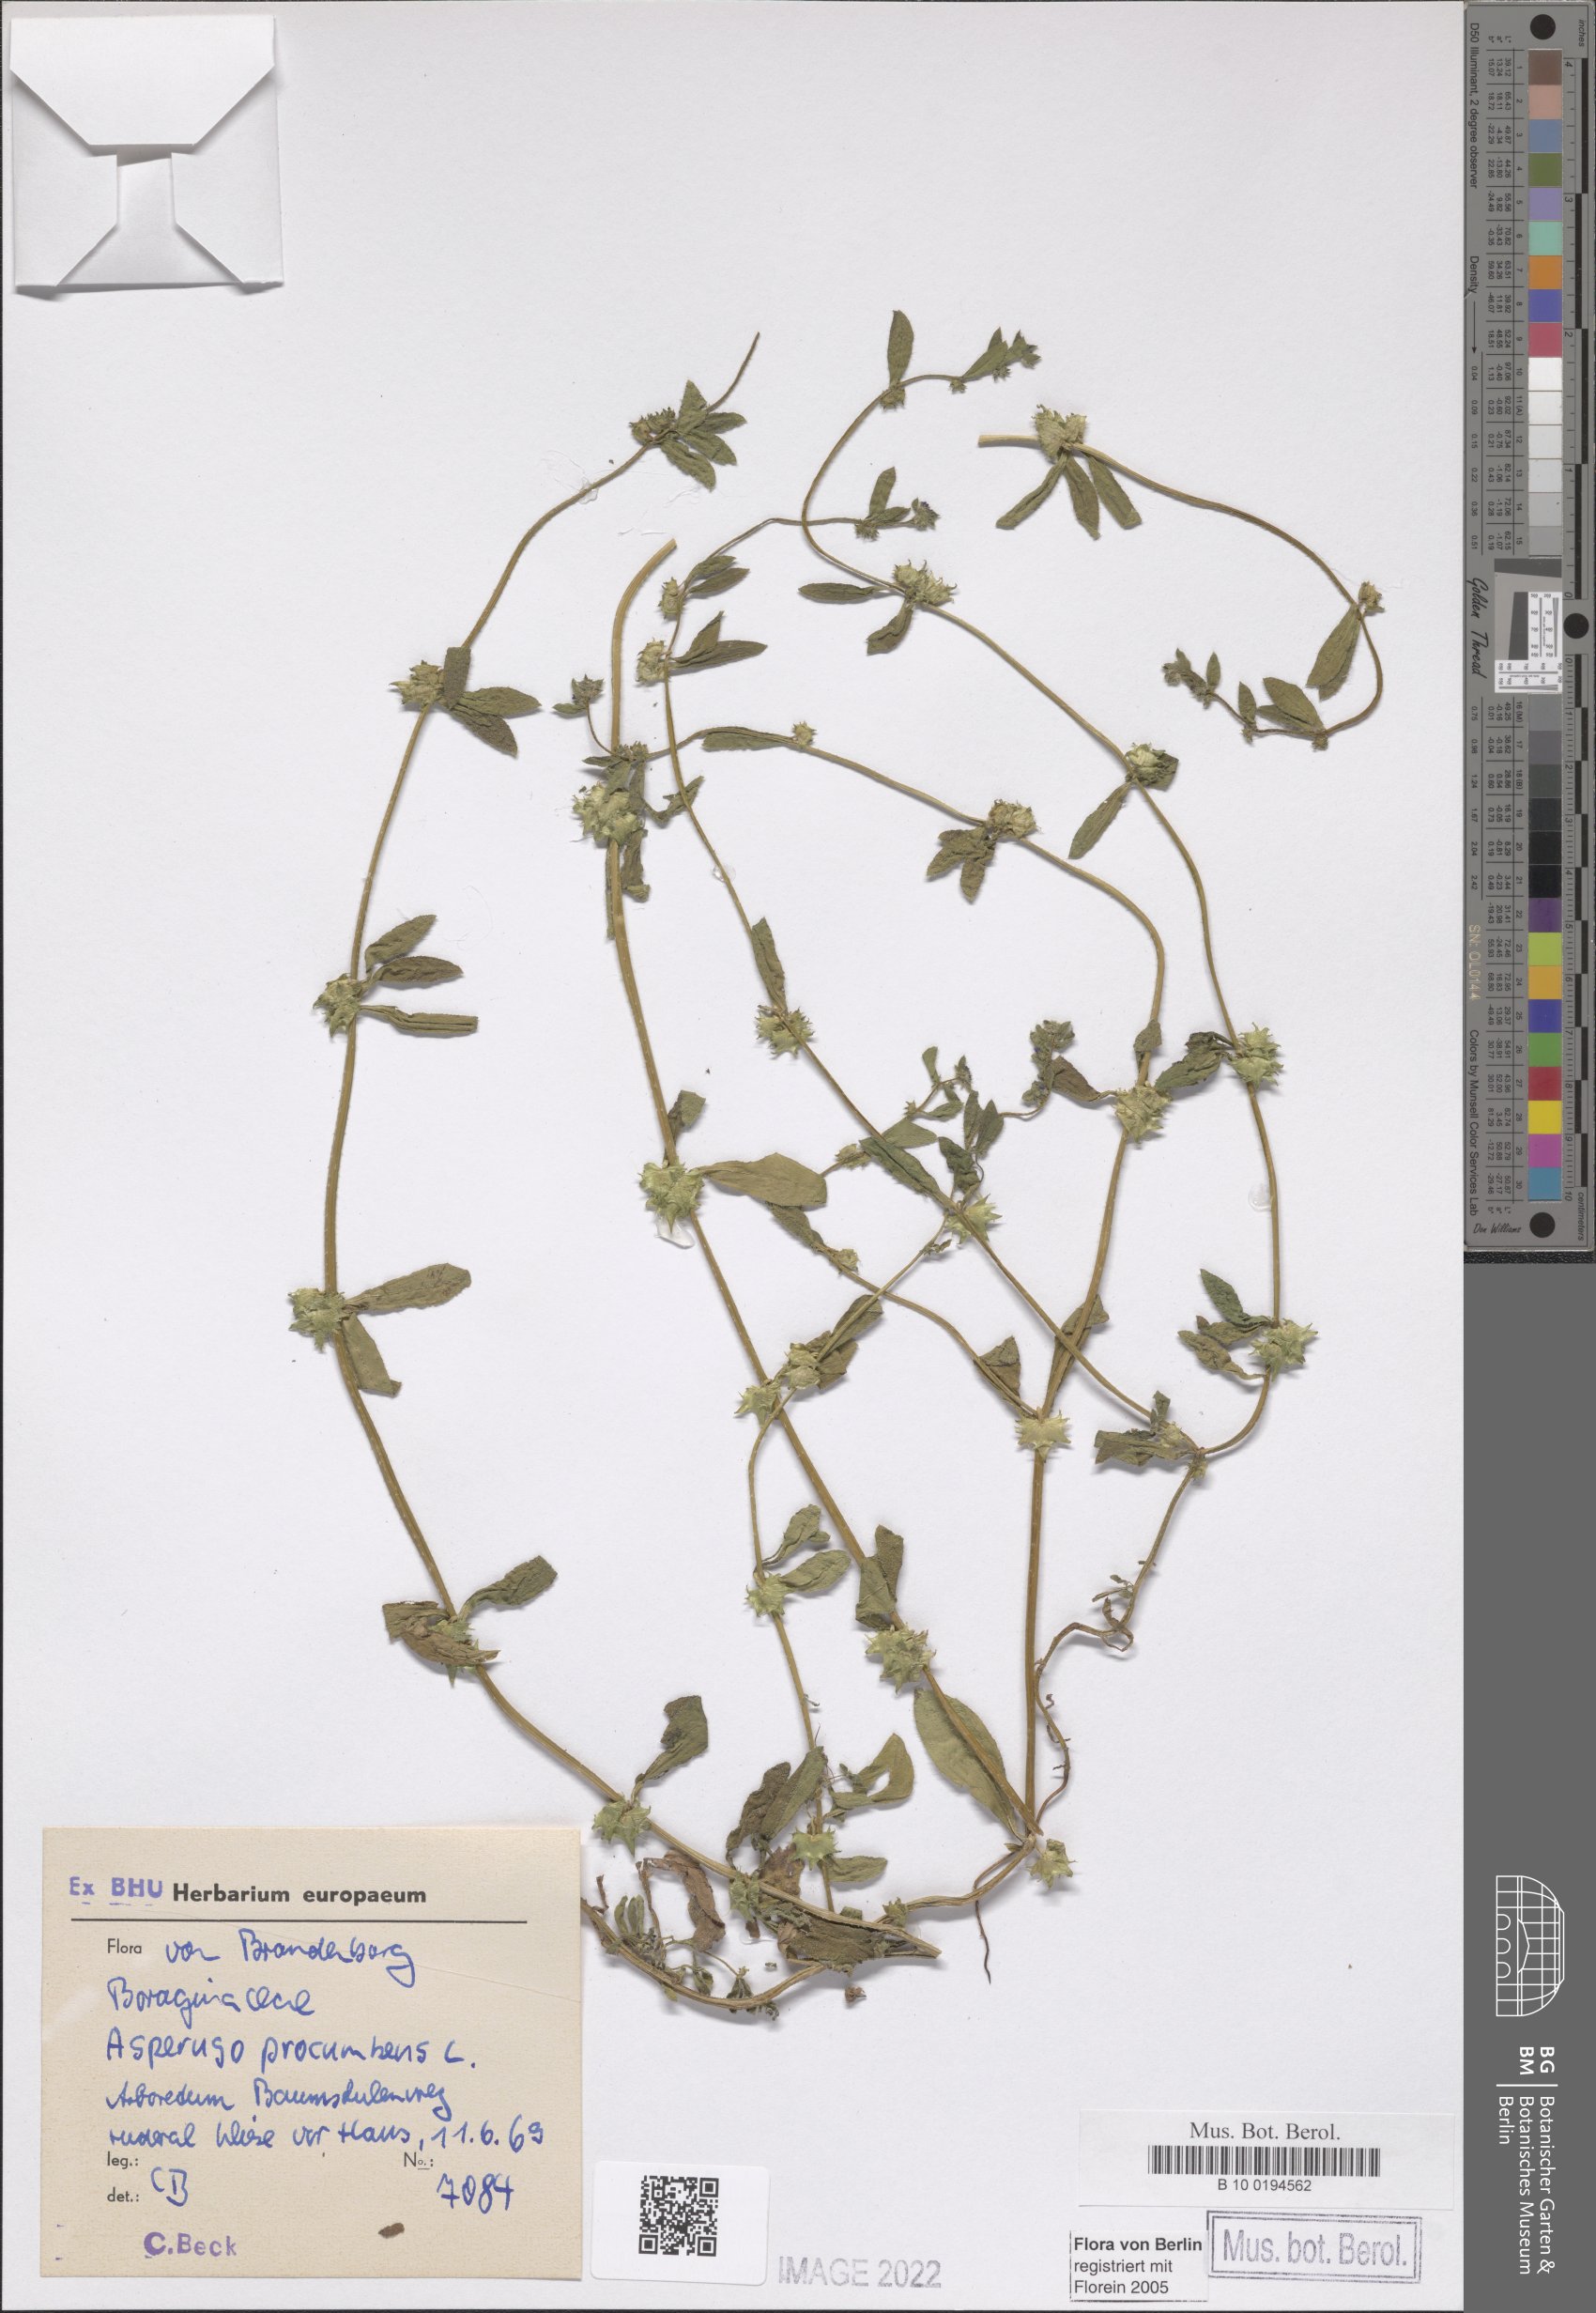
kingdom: Plantae
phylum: Tracheophyta
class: Magnoliopsida
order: Boraginales
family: Boraginaceae
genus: Asperugo
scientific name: Asperugo procumbens
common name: Madwort
